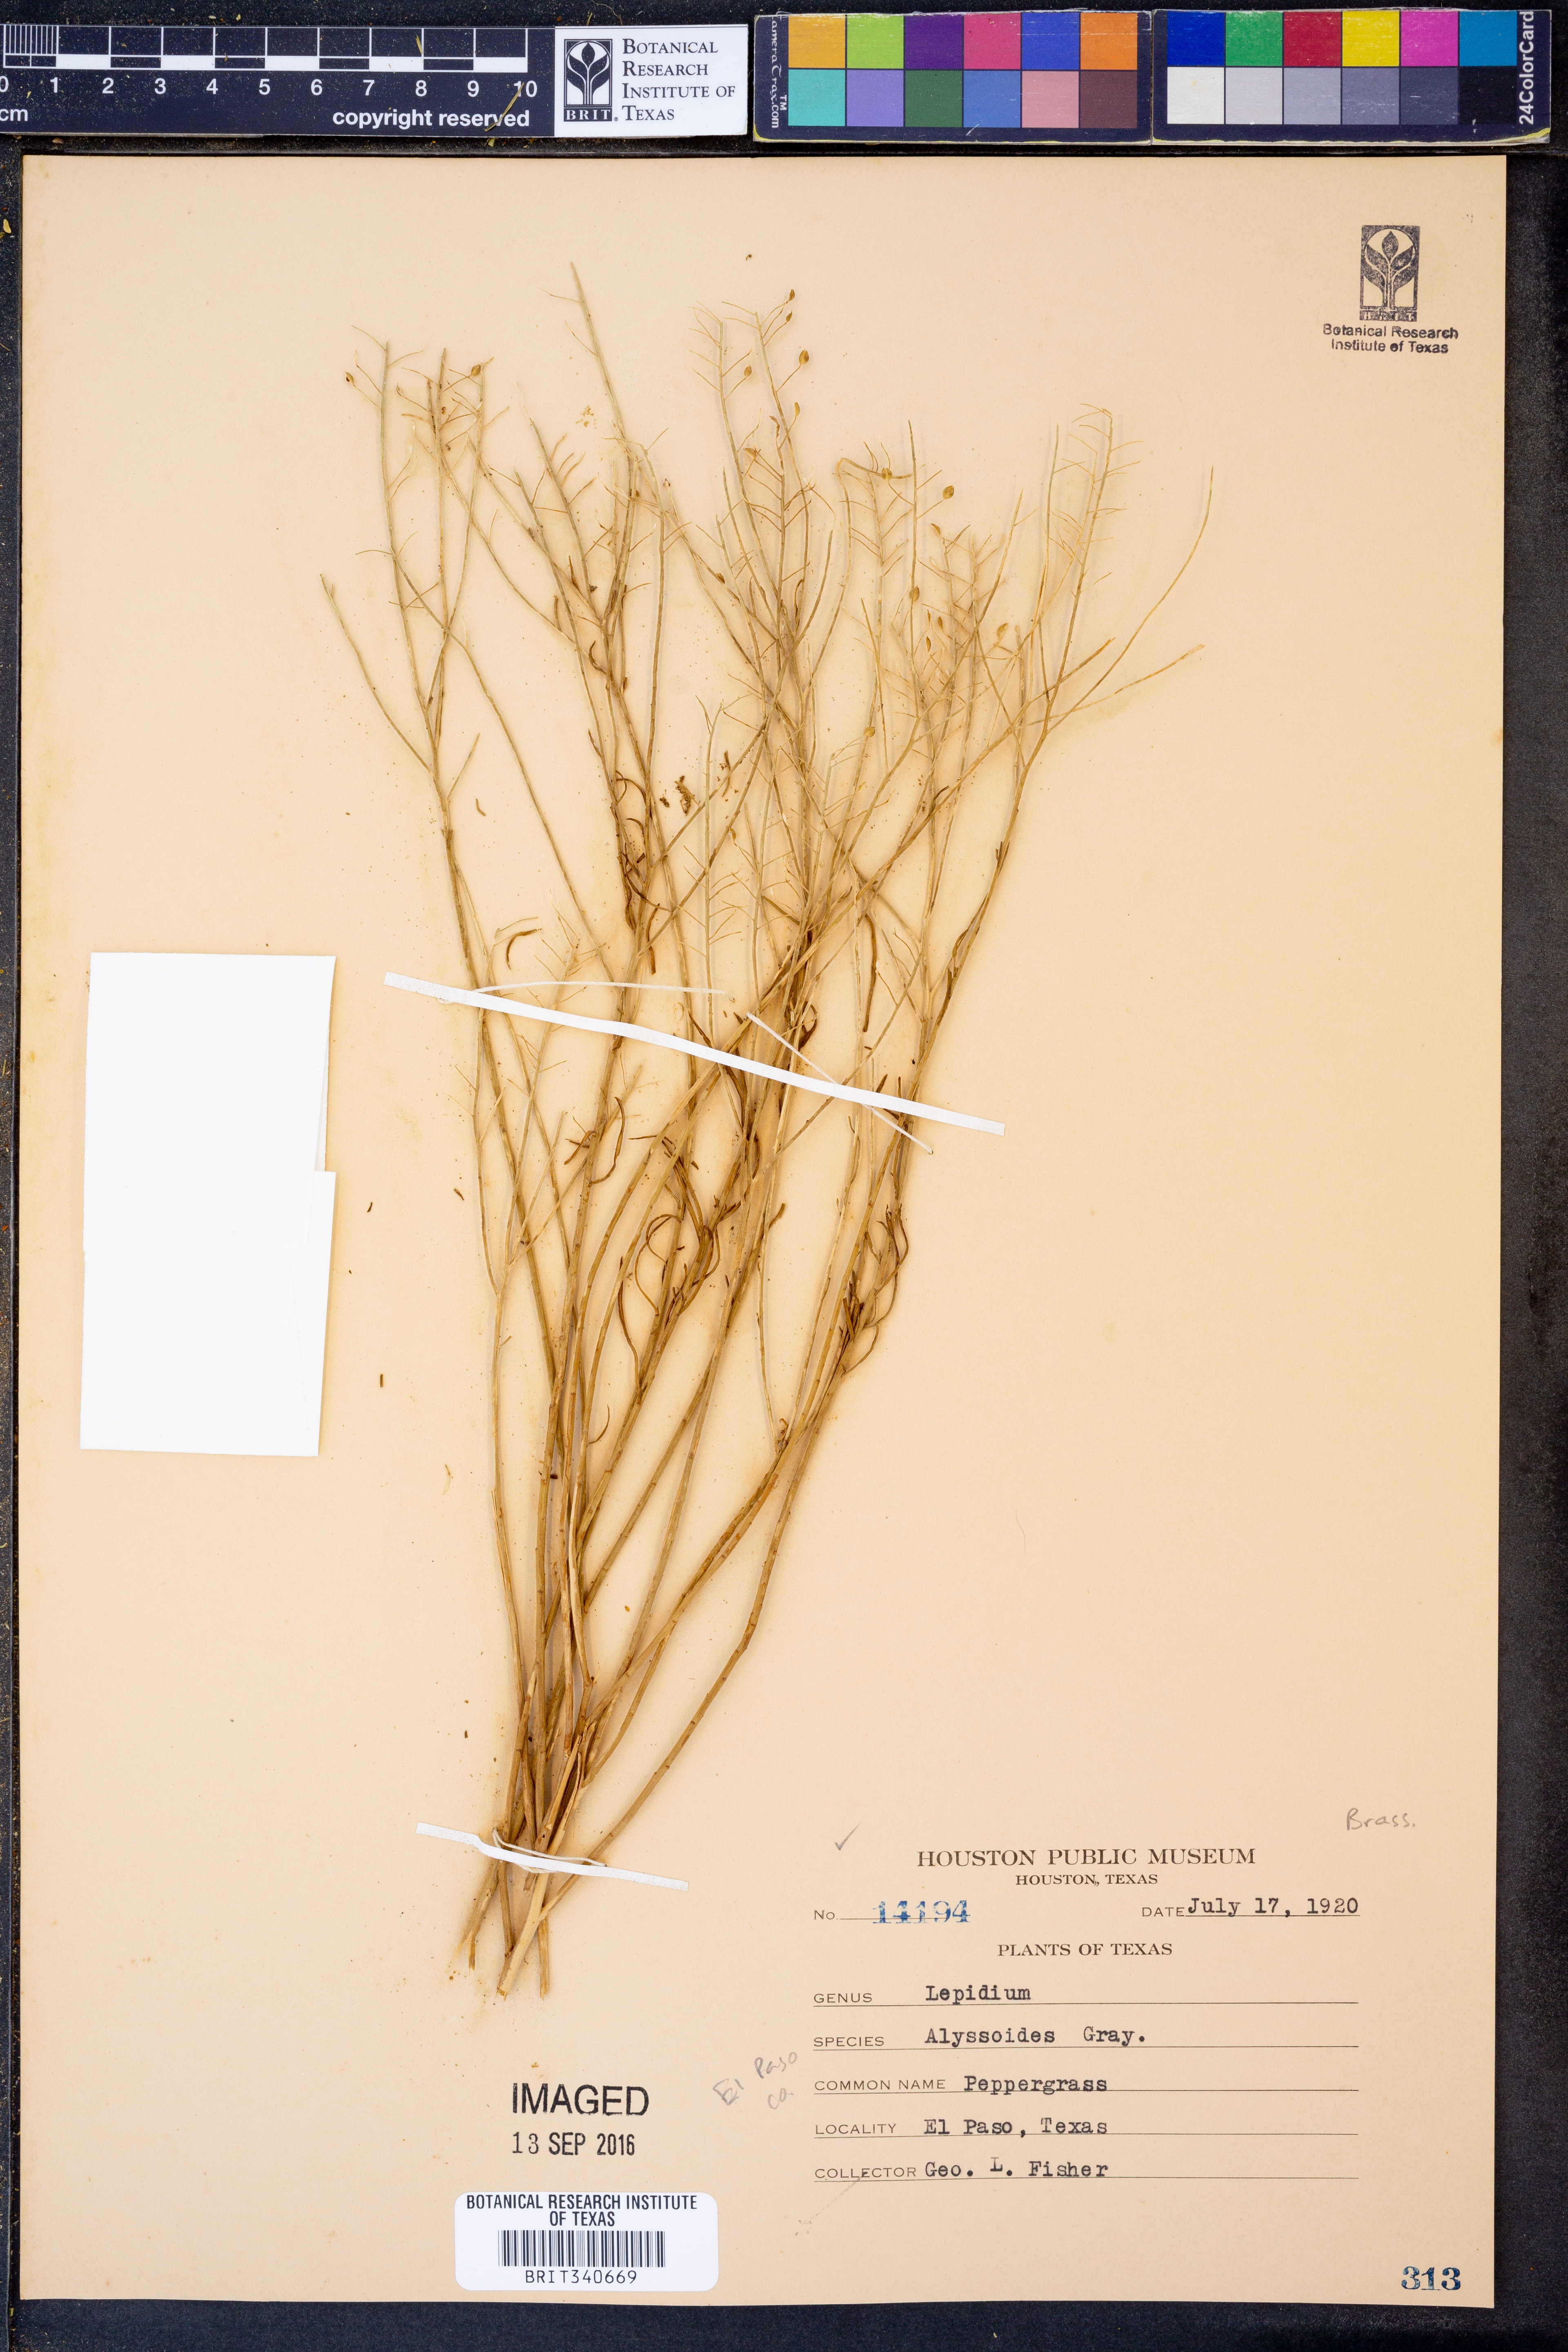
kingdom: Plantae
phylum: Tracheophyta
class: Magnoliopsida
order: Brassicales
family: Brassicaceae
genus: Lepidium
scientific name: Lepidium alyssoides
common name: Mesa pepperweed
